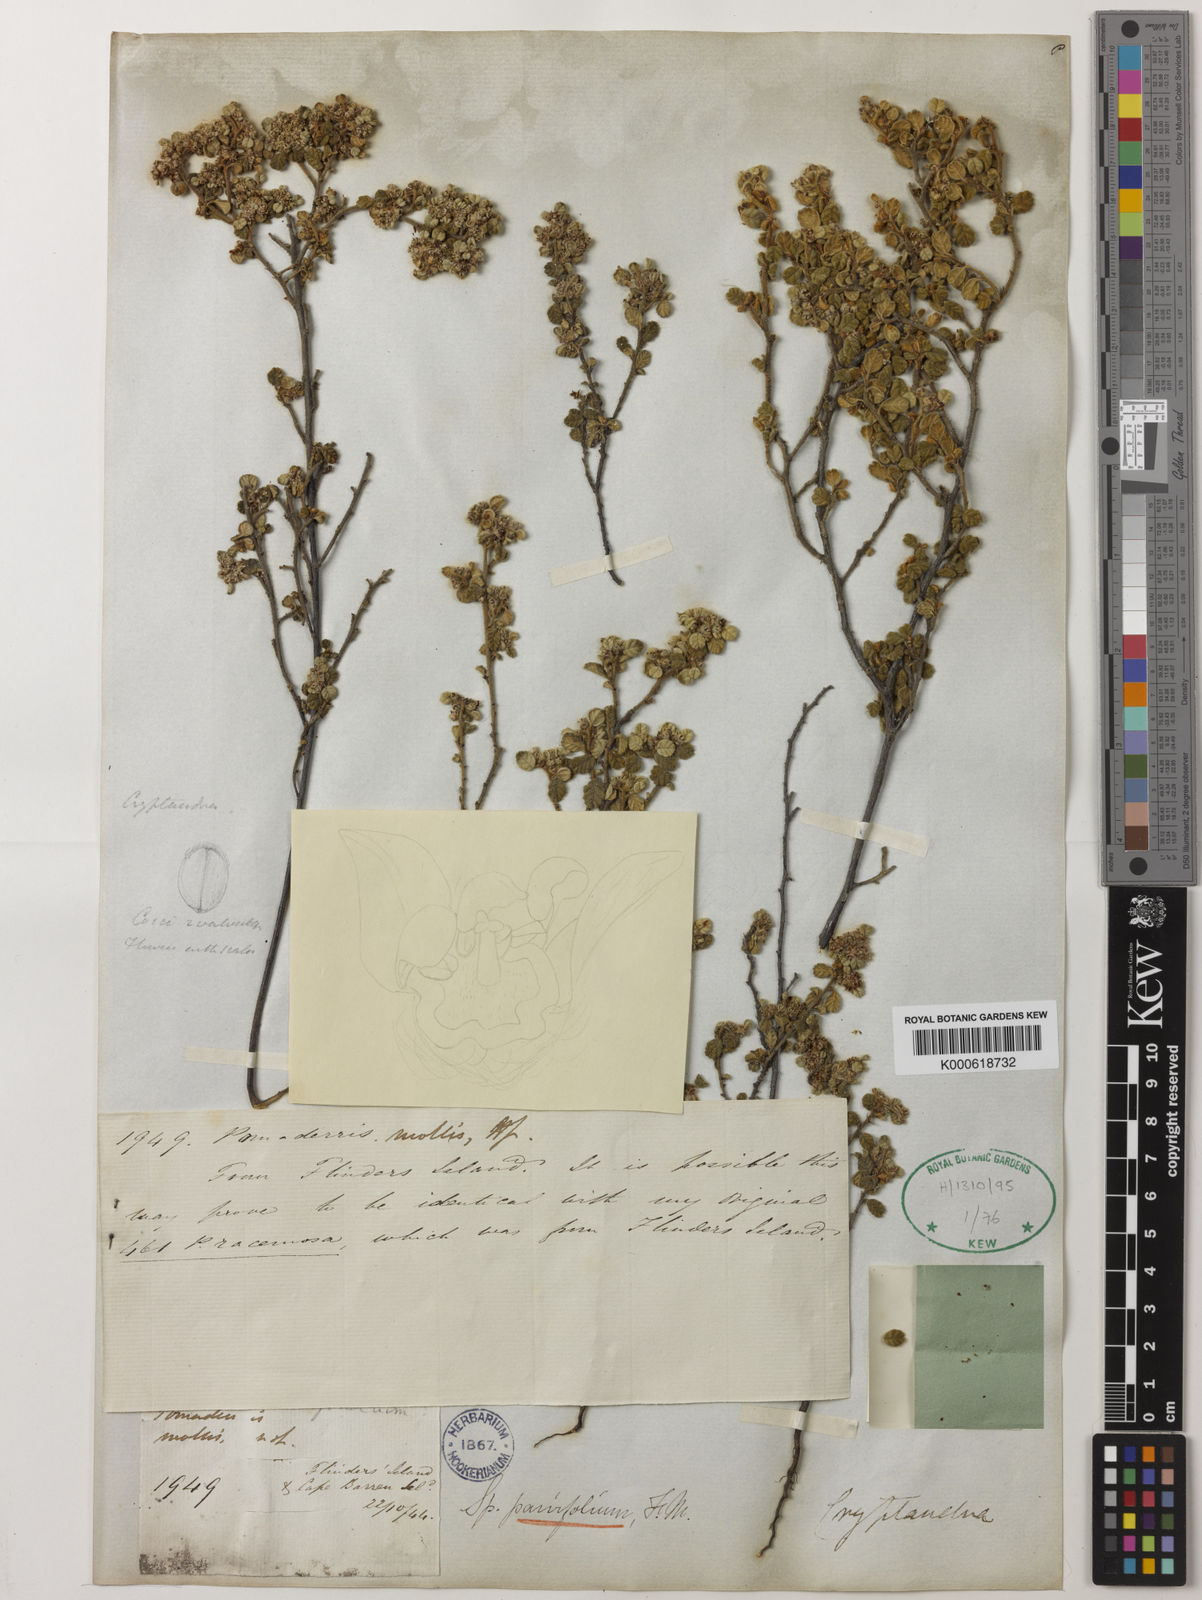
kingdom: Plantae
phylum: Tracheophyta
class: Magnoliopsida
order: Rosales
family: Rhamnaceae
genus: Spyridium
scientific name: Spyridium parvifolium
